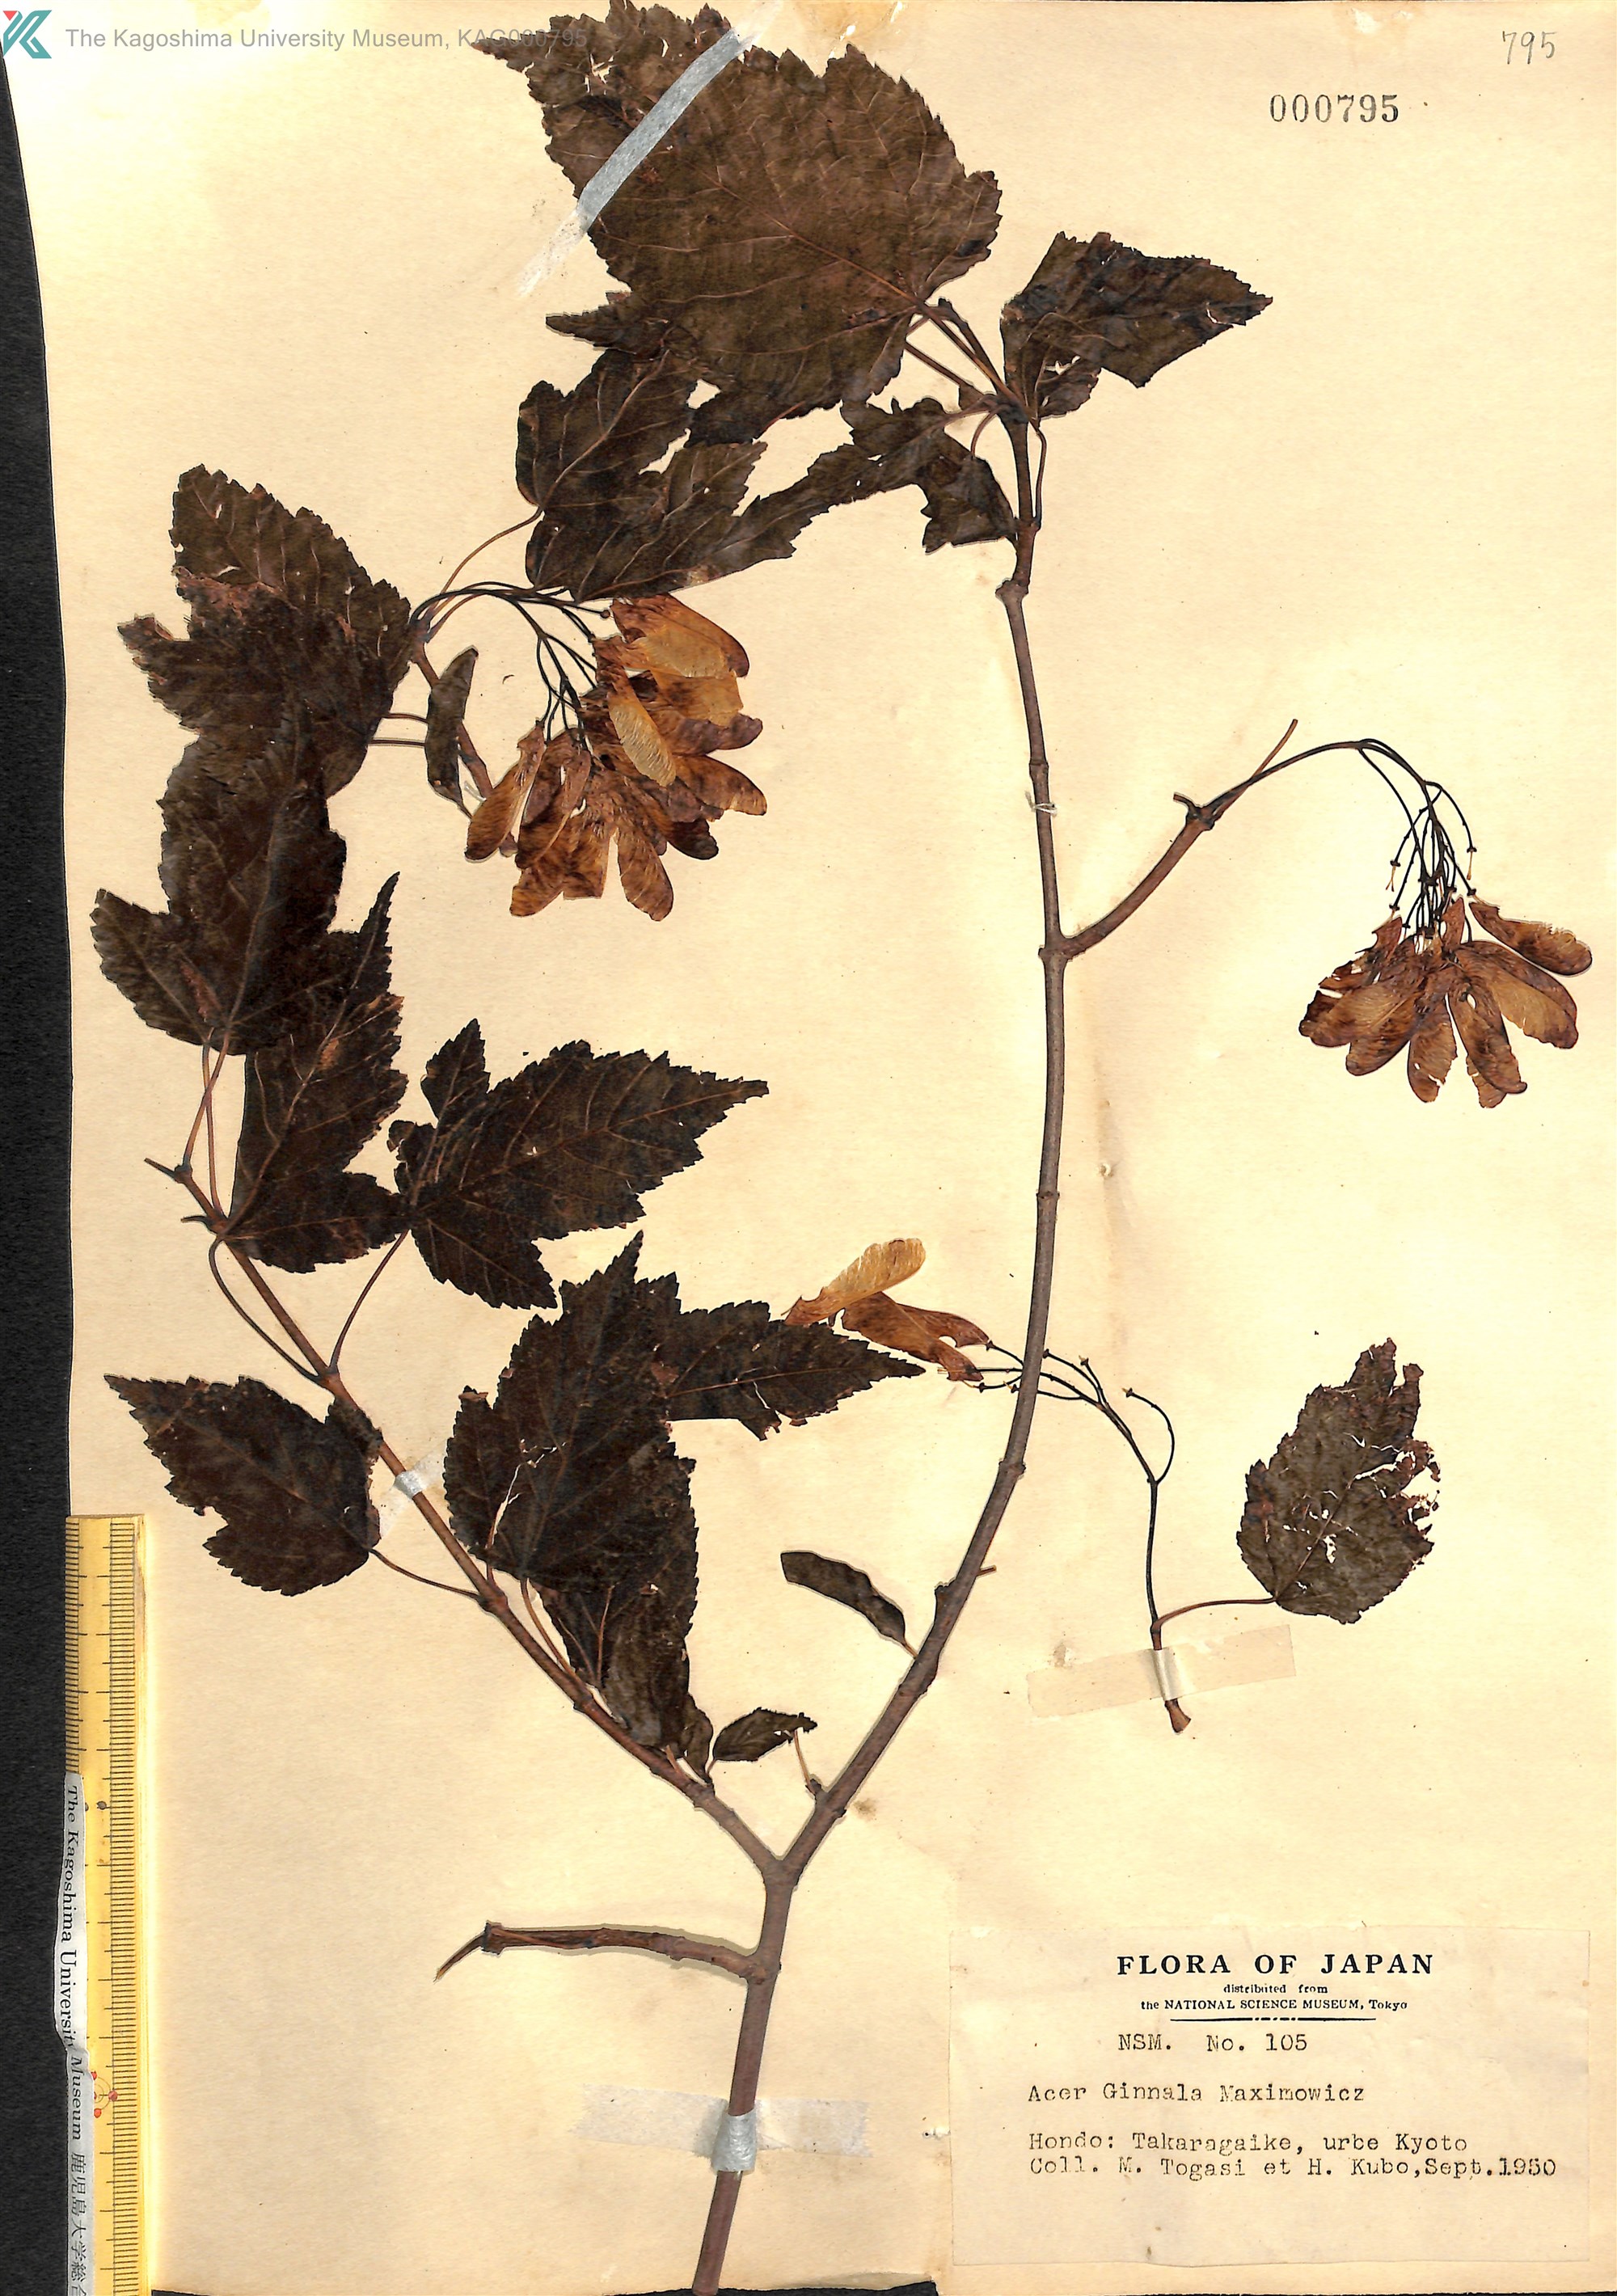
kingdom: Plantae
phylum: Tracheophyta
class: Magnoliopsida
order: Sapindales
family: Sapindaceae
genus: Acer
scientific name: Acer tataricum
